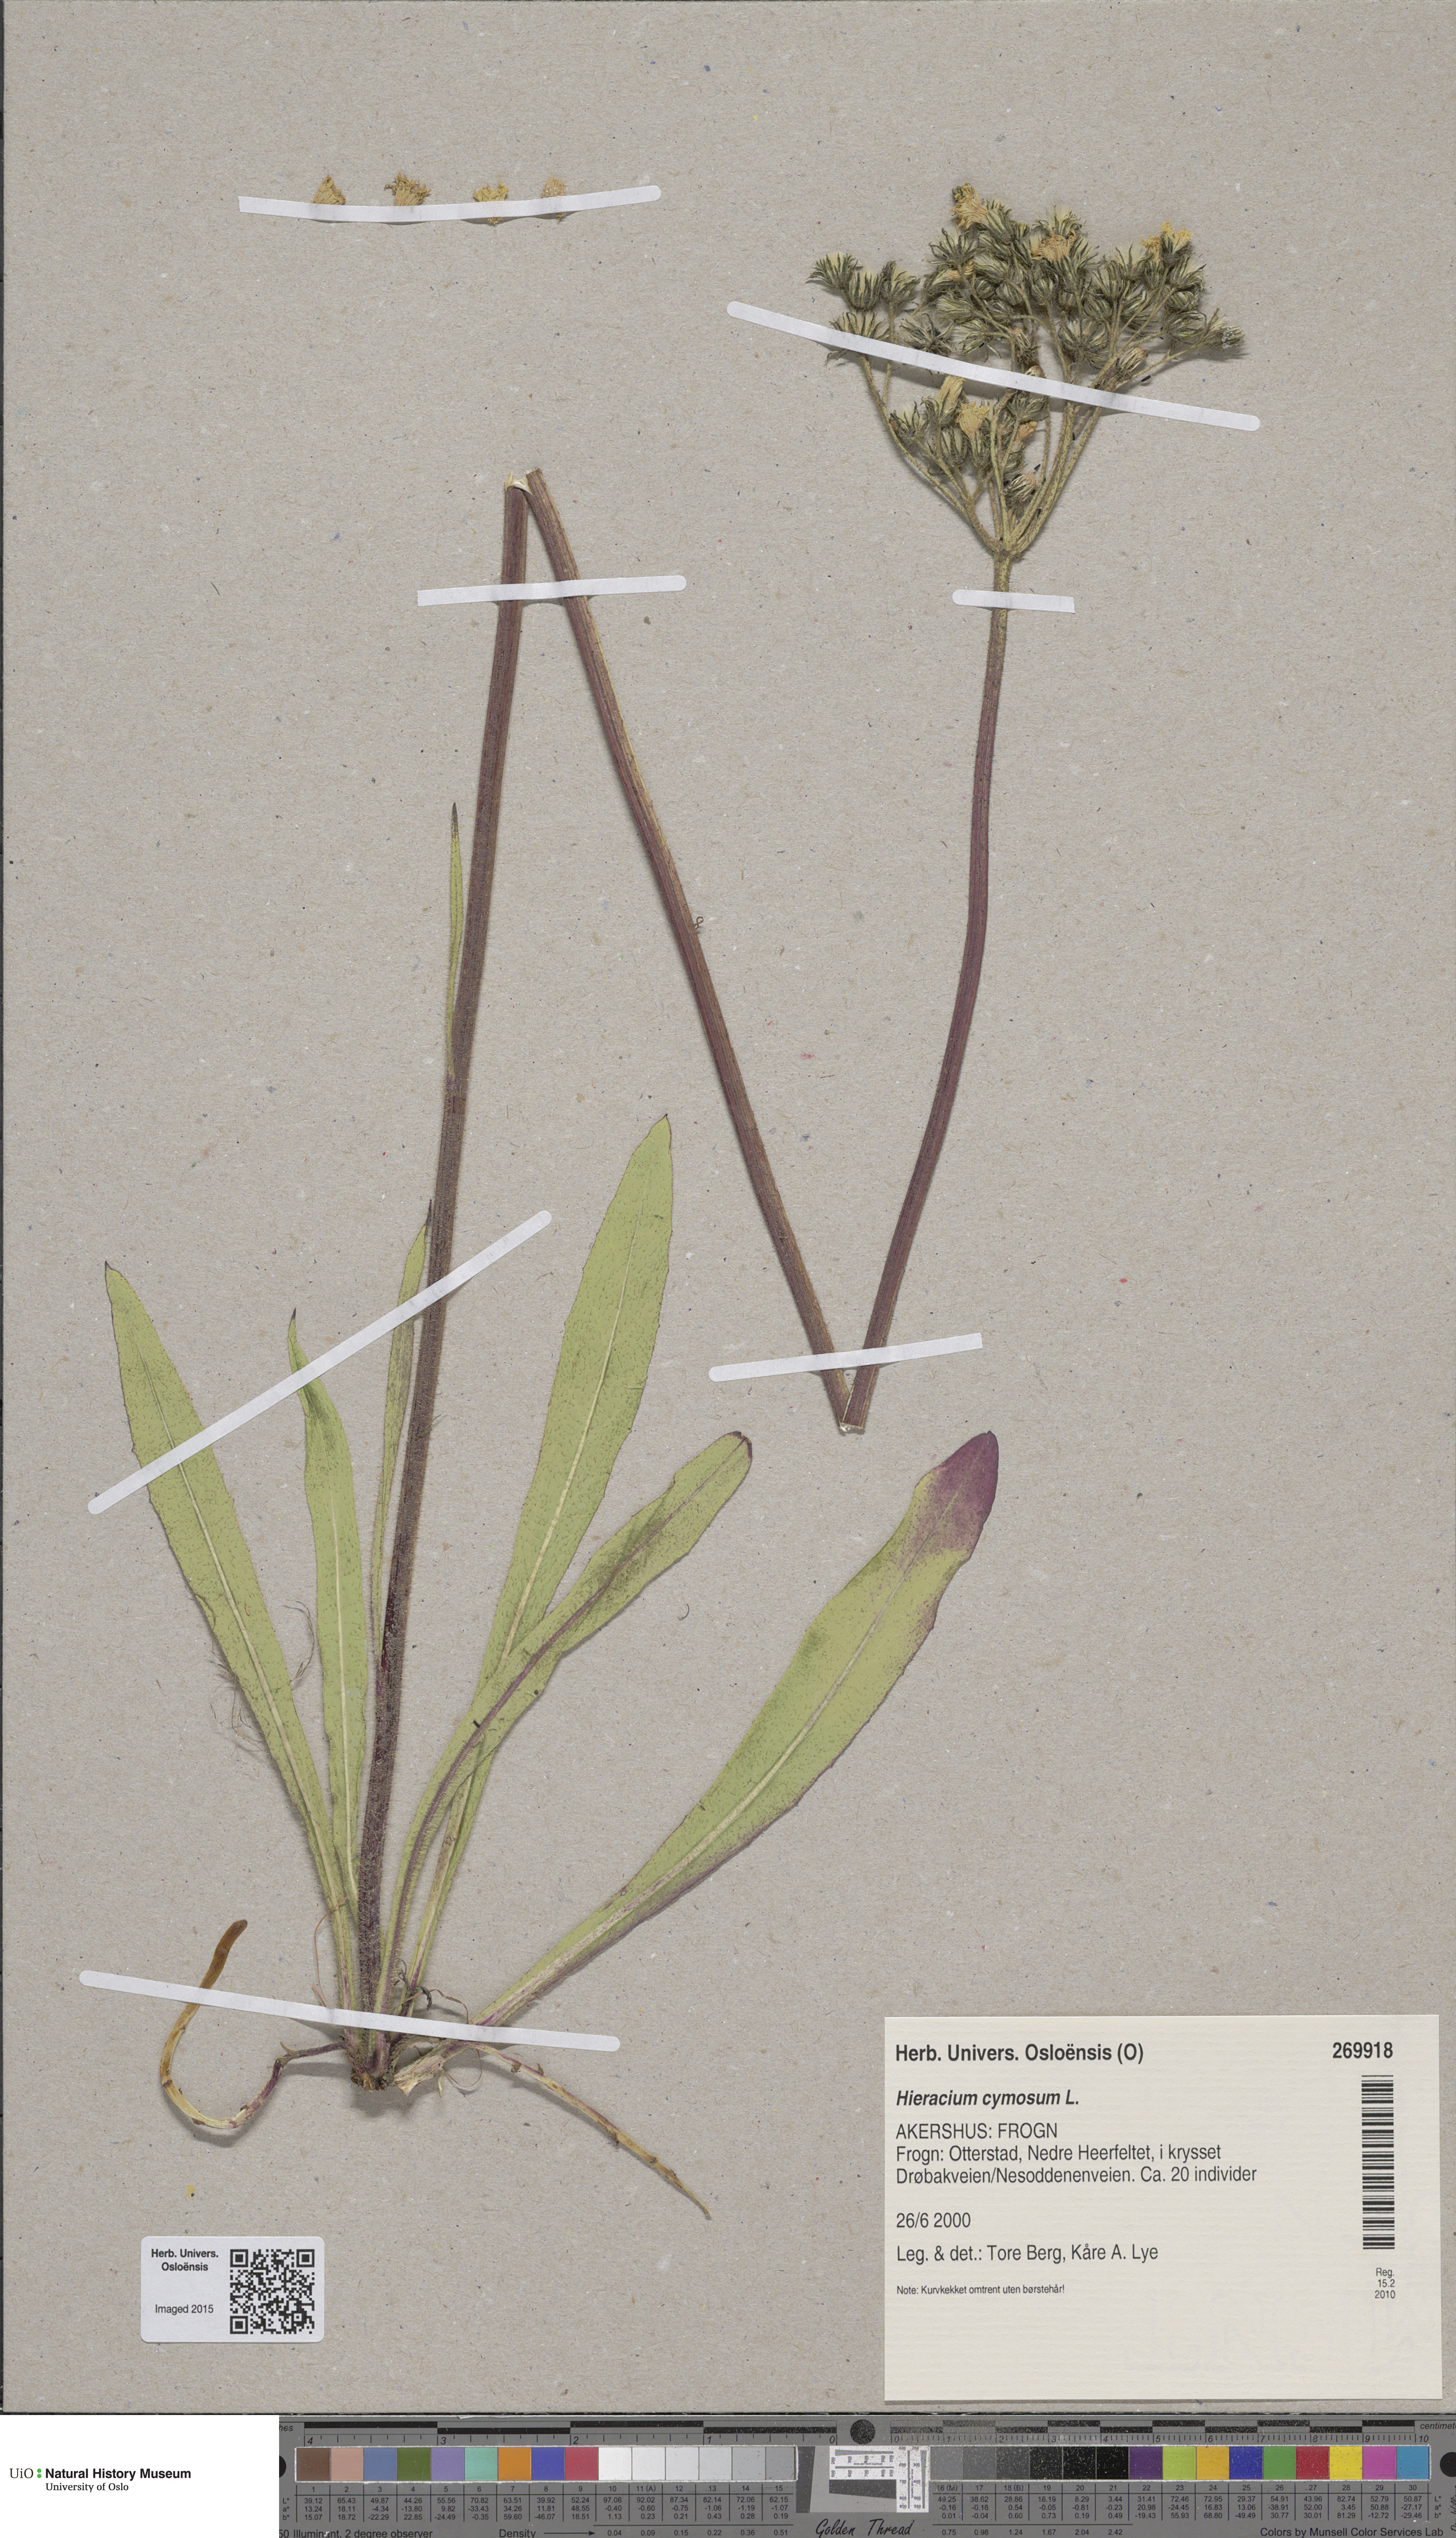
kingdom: Plantae
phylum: Tracheophyta
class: Magnoliopsida
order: Asterales
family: Asteraceae
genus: Pilosella
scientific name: Pilosella cymosa
